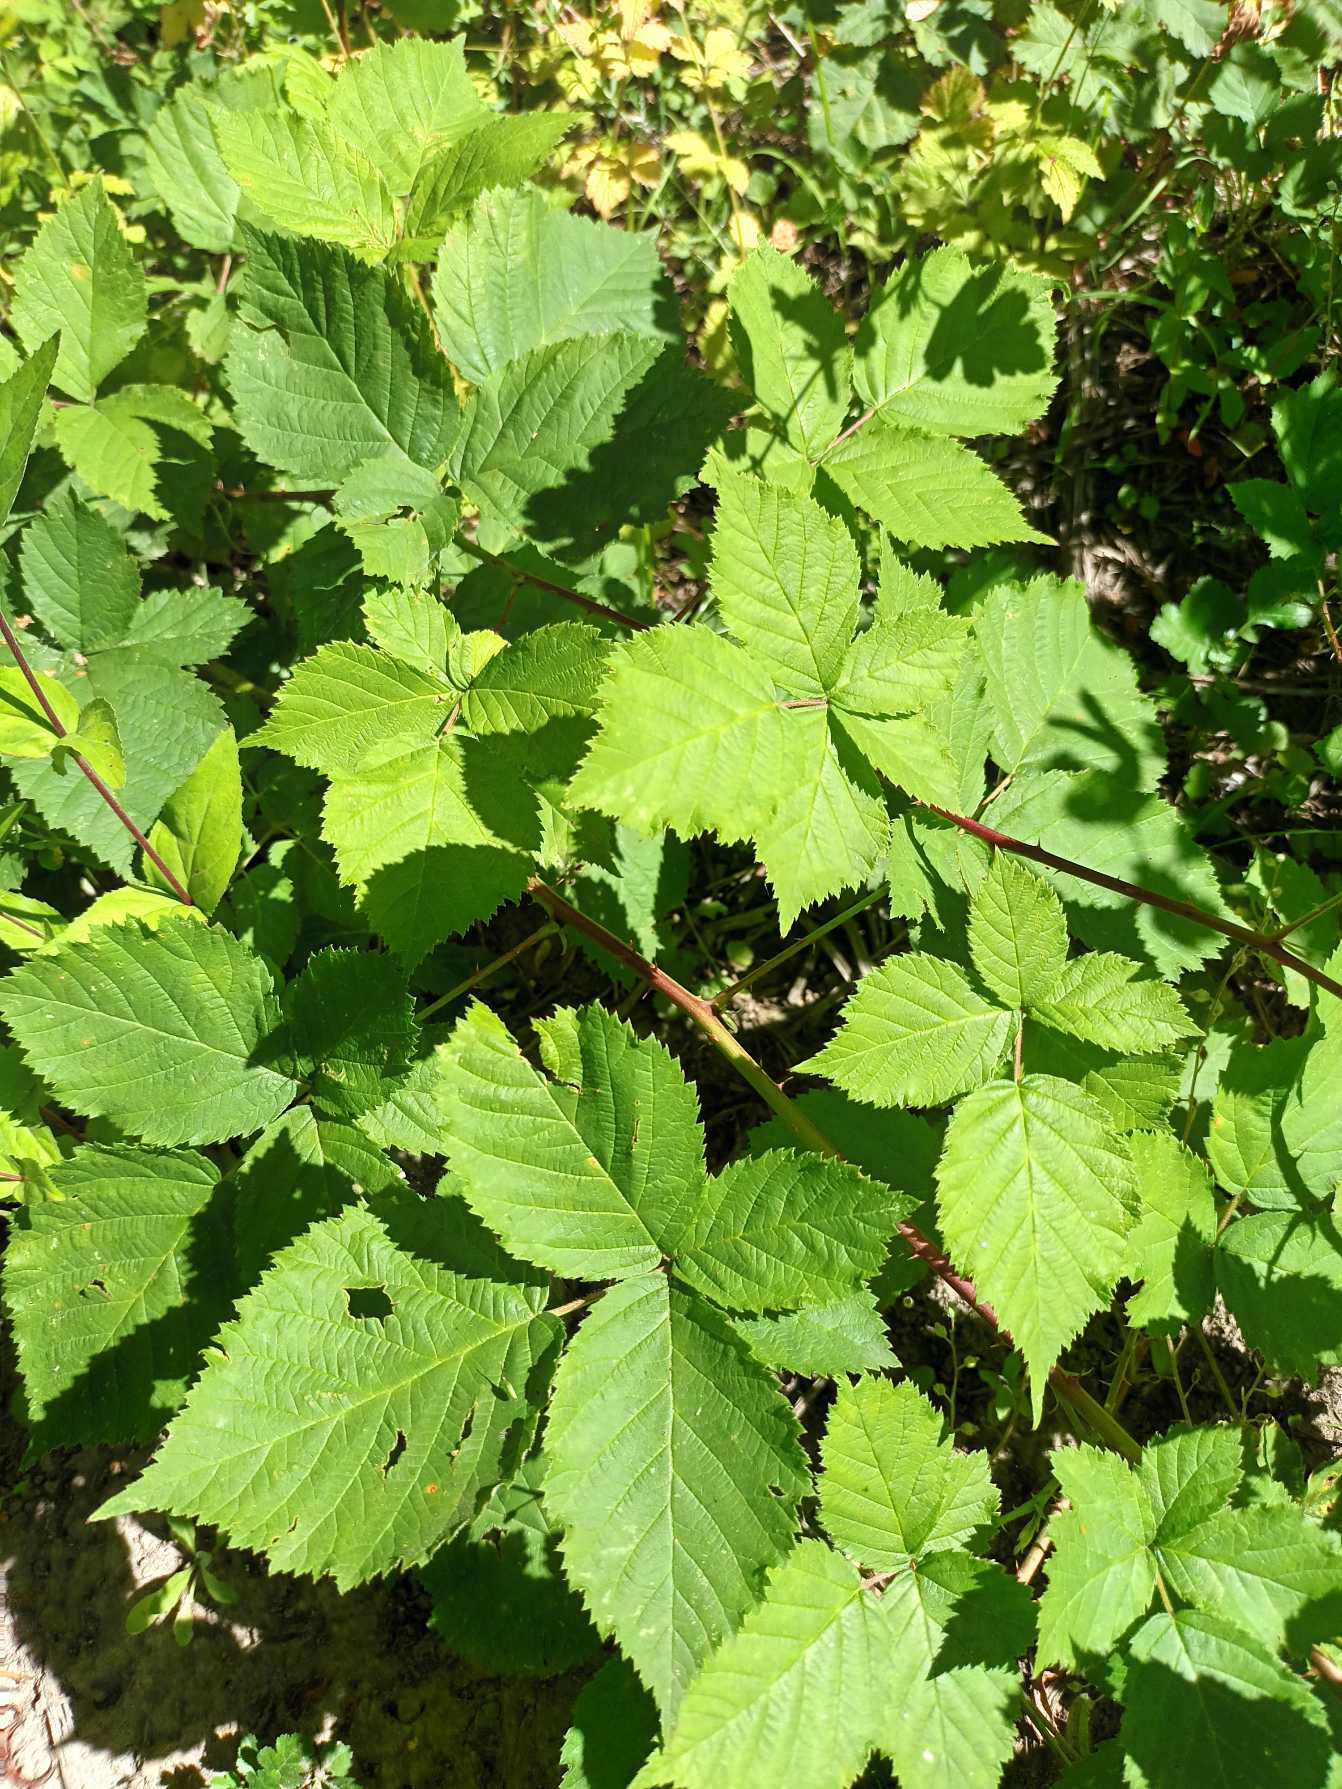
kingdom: Plantae
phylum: Tracheophyta
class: Magnoliopsida
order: Rosales
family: Rosaceae
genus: Rubus
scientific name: Rubus egregiusculus
